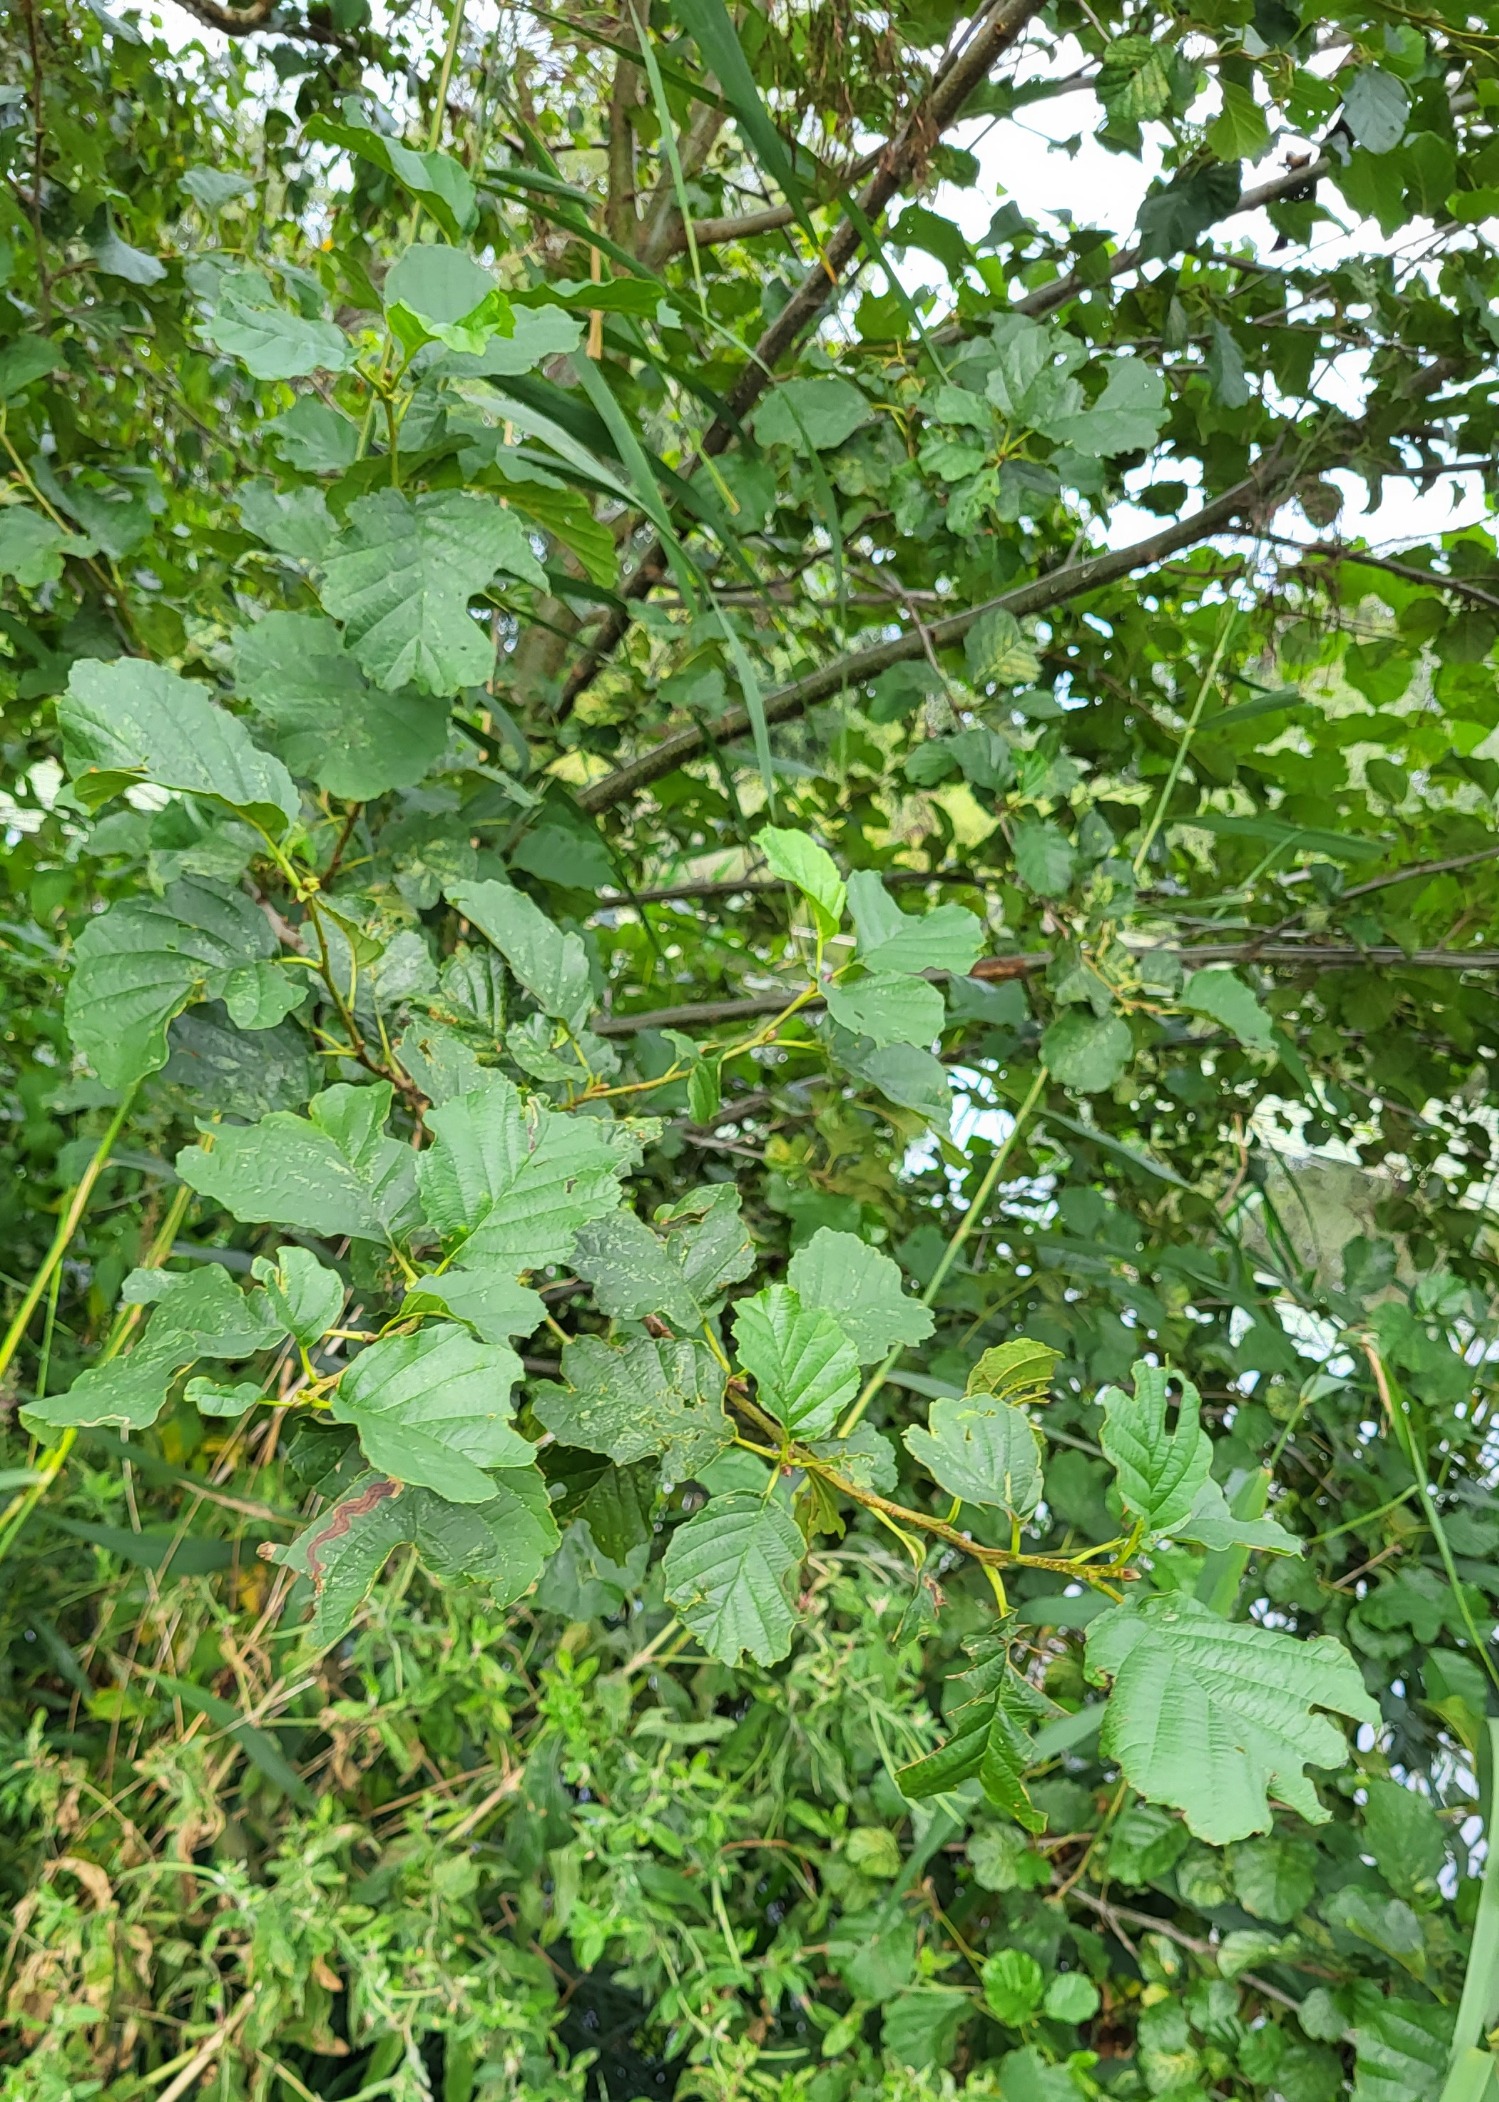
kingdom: Plantae
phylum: Tracheophyta
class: Magnoliopsida
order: Fagales
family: Betulaceae
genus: Alnus
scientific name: Alnus glutinosa
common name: Rød-el
